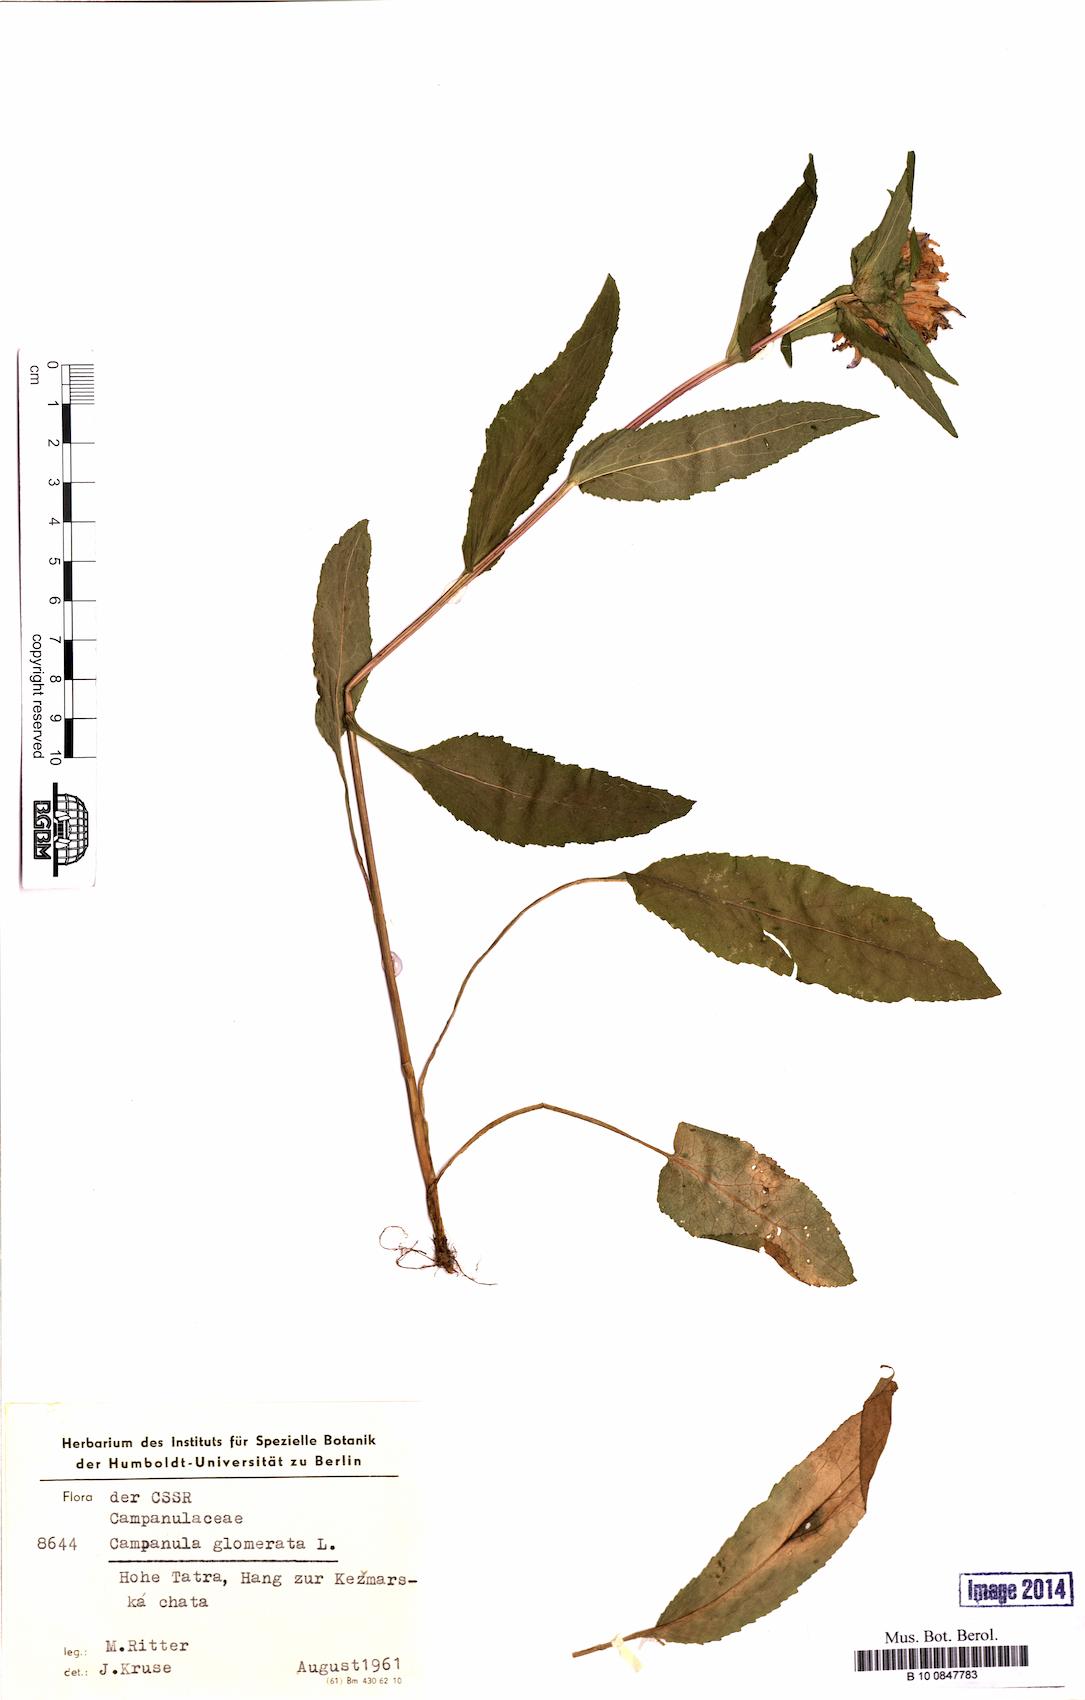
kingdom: Plantae
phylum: Tracheophyta
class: Magnoliopsida
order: Asterales
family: Campanulaceae
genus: Campanula
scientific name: Campanula glomerata
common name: Clustered bellflower
